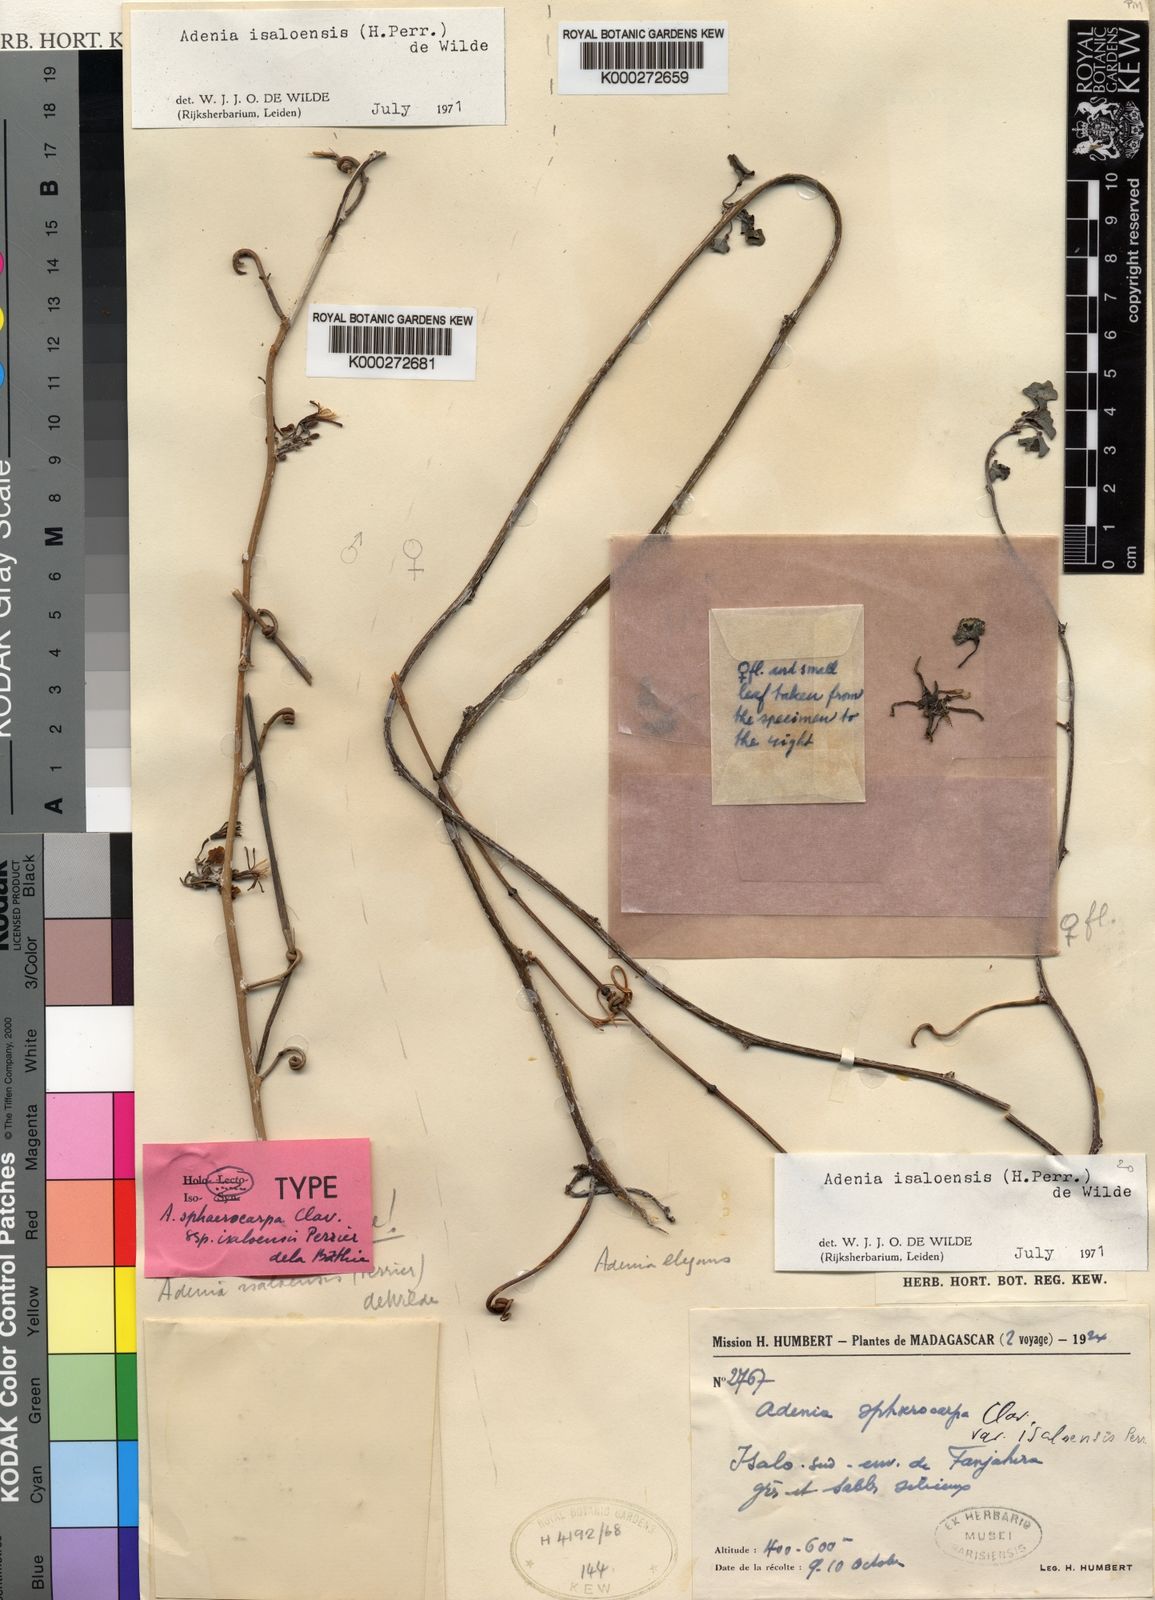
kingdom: Plantae
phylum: Tracheophyta
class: Magnoliopsida
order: Malpighiales
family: Passifloraceae
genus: Adenia
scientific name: Adenia isaloensis
